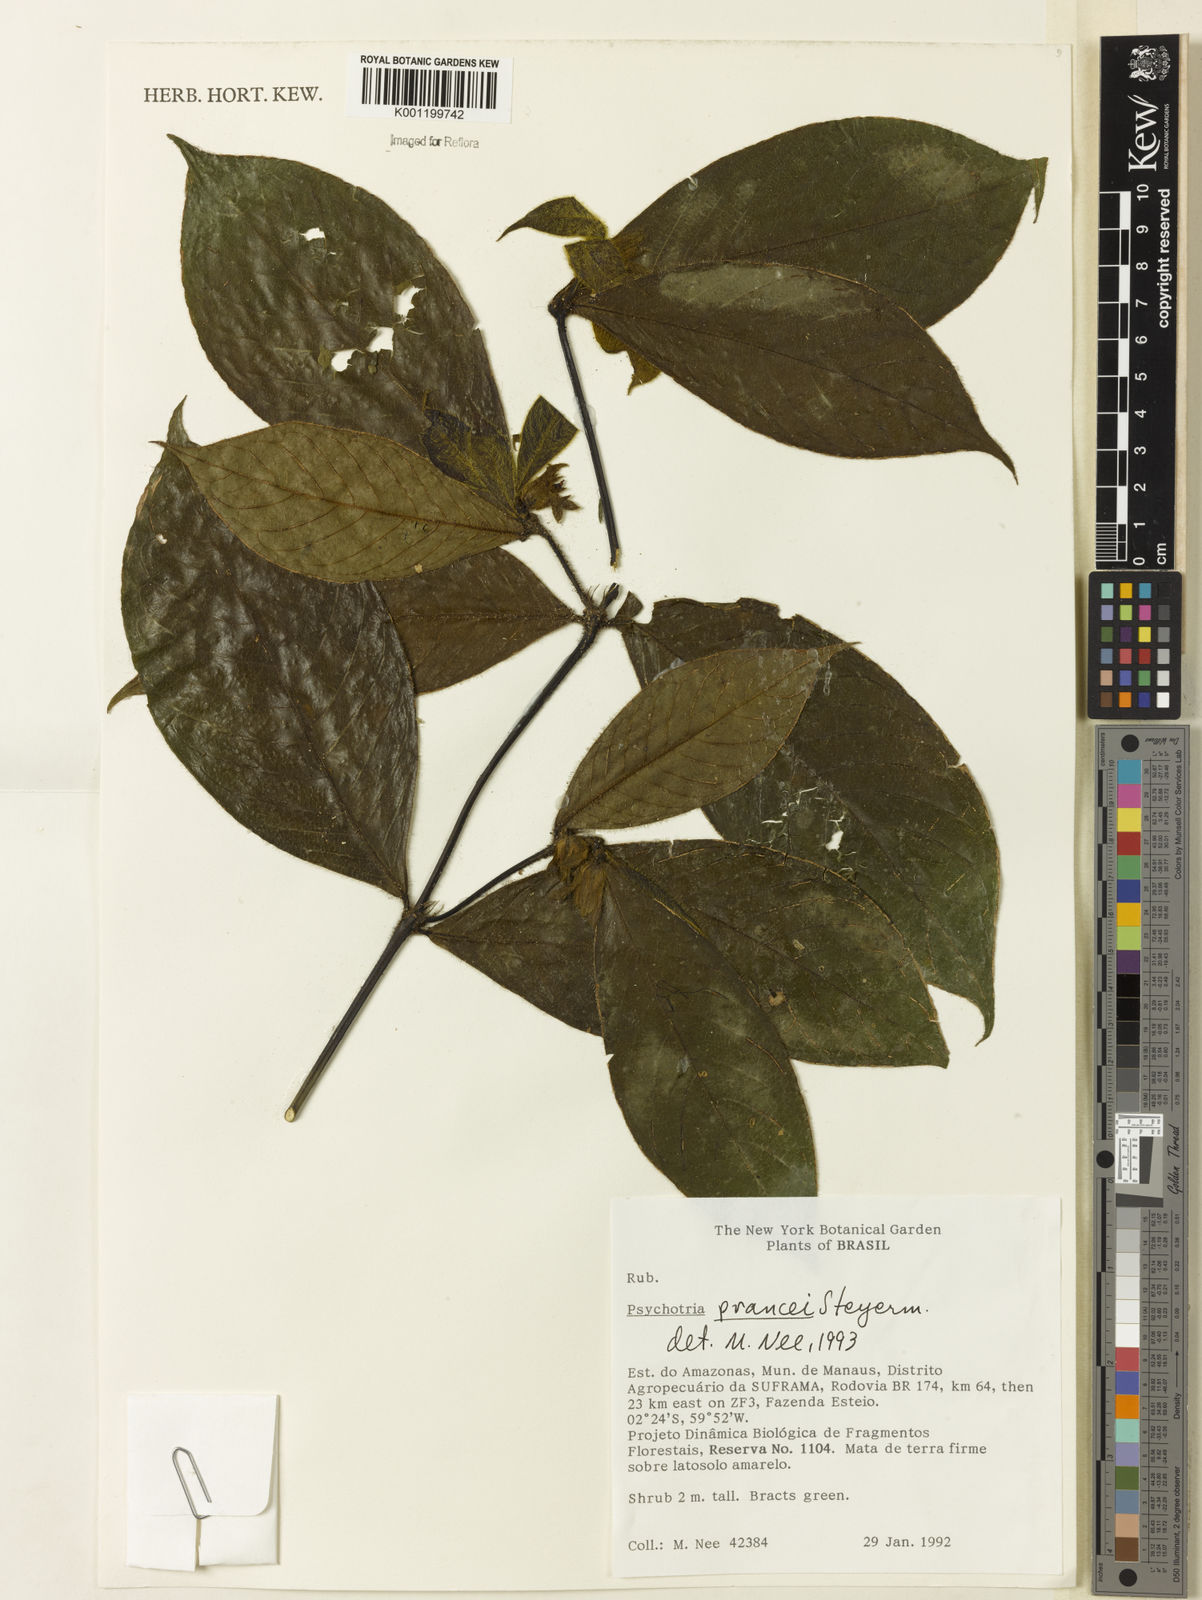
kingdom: Plantae
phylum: Tracheophyta
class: Magnoliopsida
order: Gentianales
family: Rubiaceae
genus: Palicourea
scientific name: Palicourea prancei
